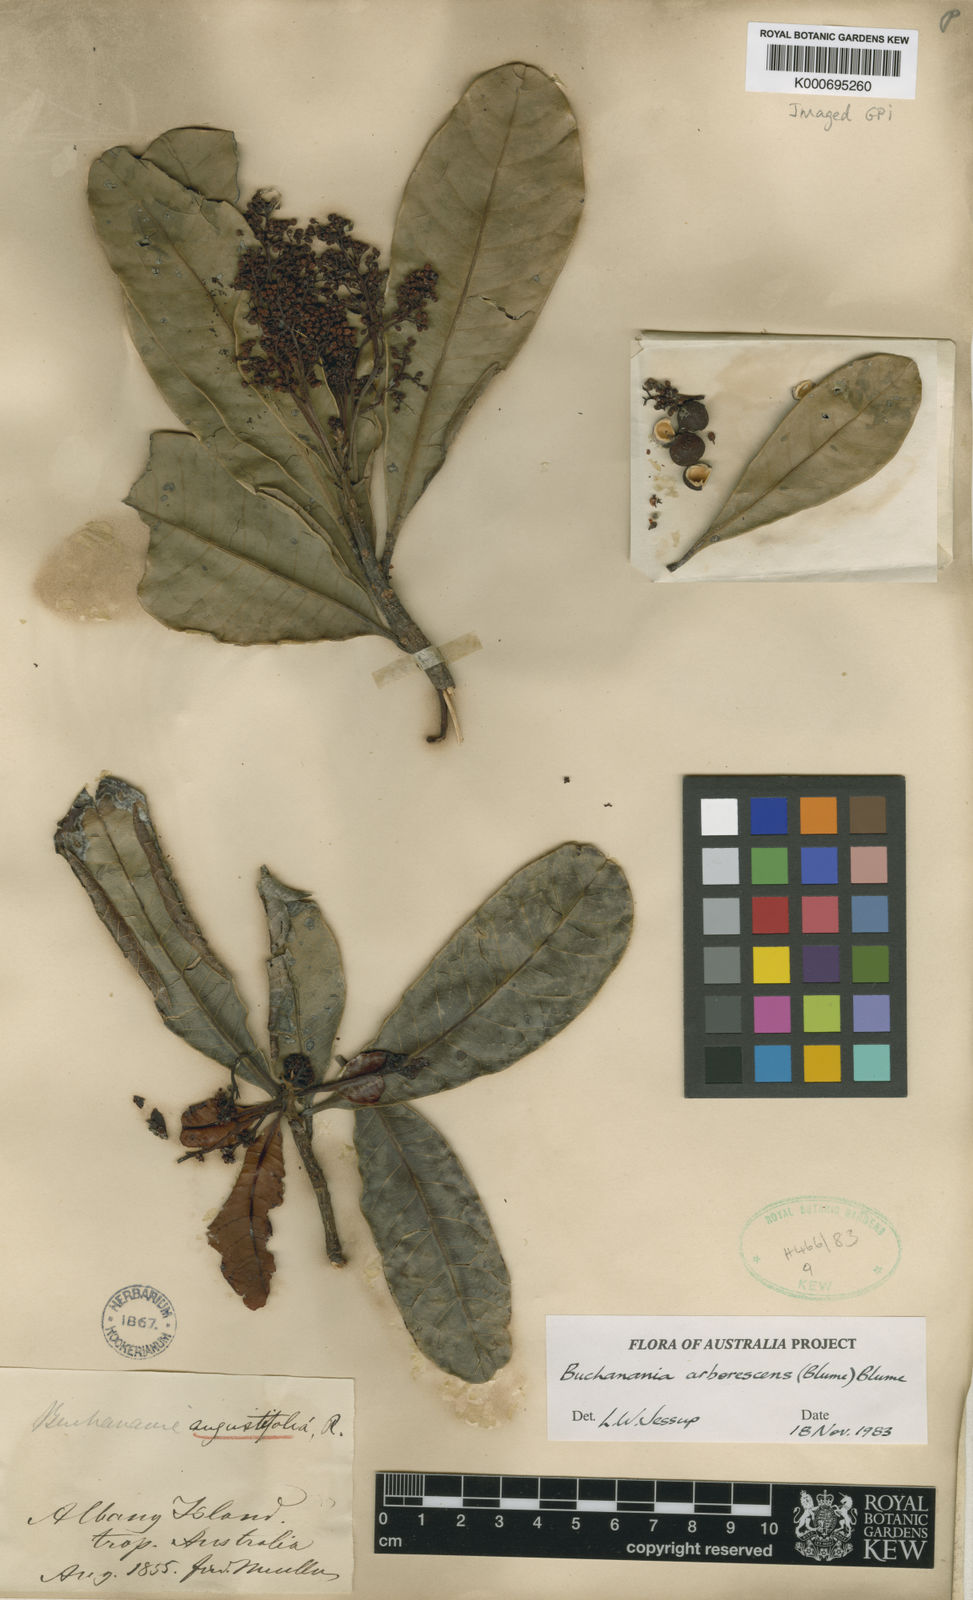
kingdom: Plantae
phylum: Tracheophyta
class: Magnoliopsida
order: Sapindales
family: Anacardiaceae
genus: Buchanania
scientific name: Buchanania arborescens
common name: Sparrow’s mango
